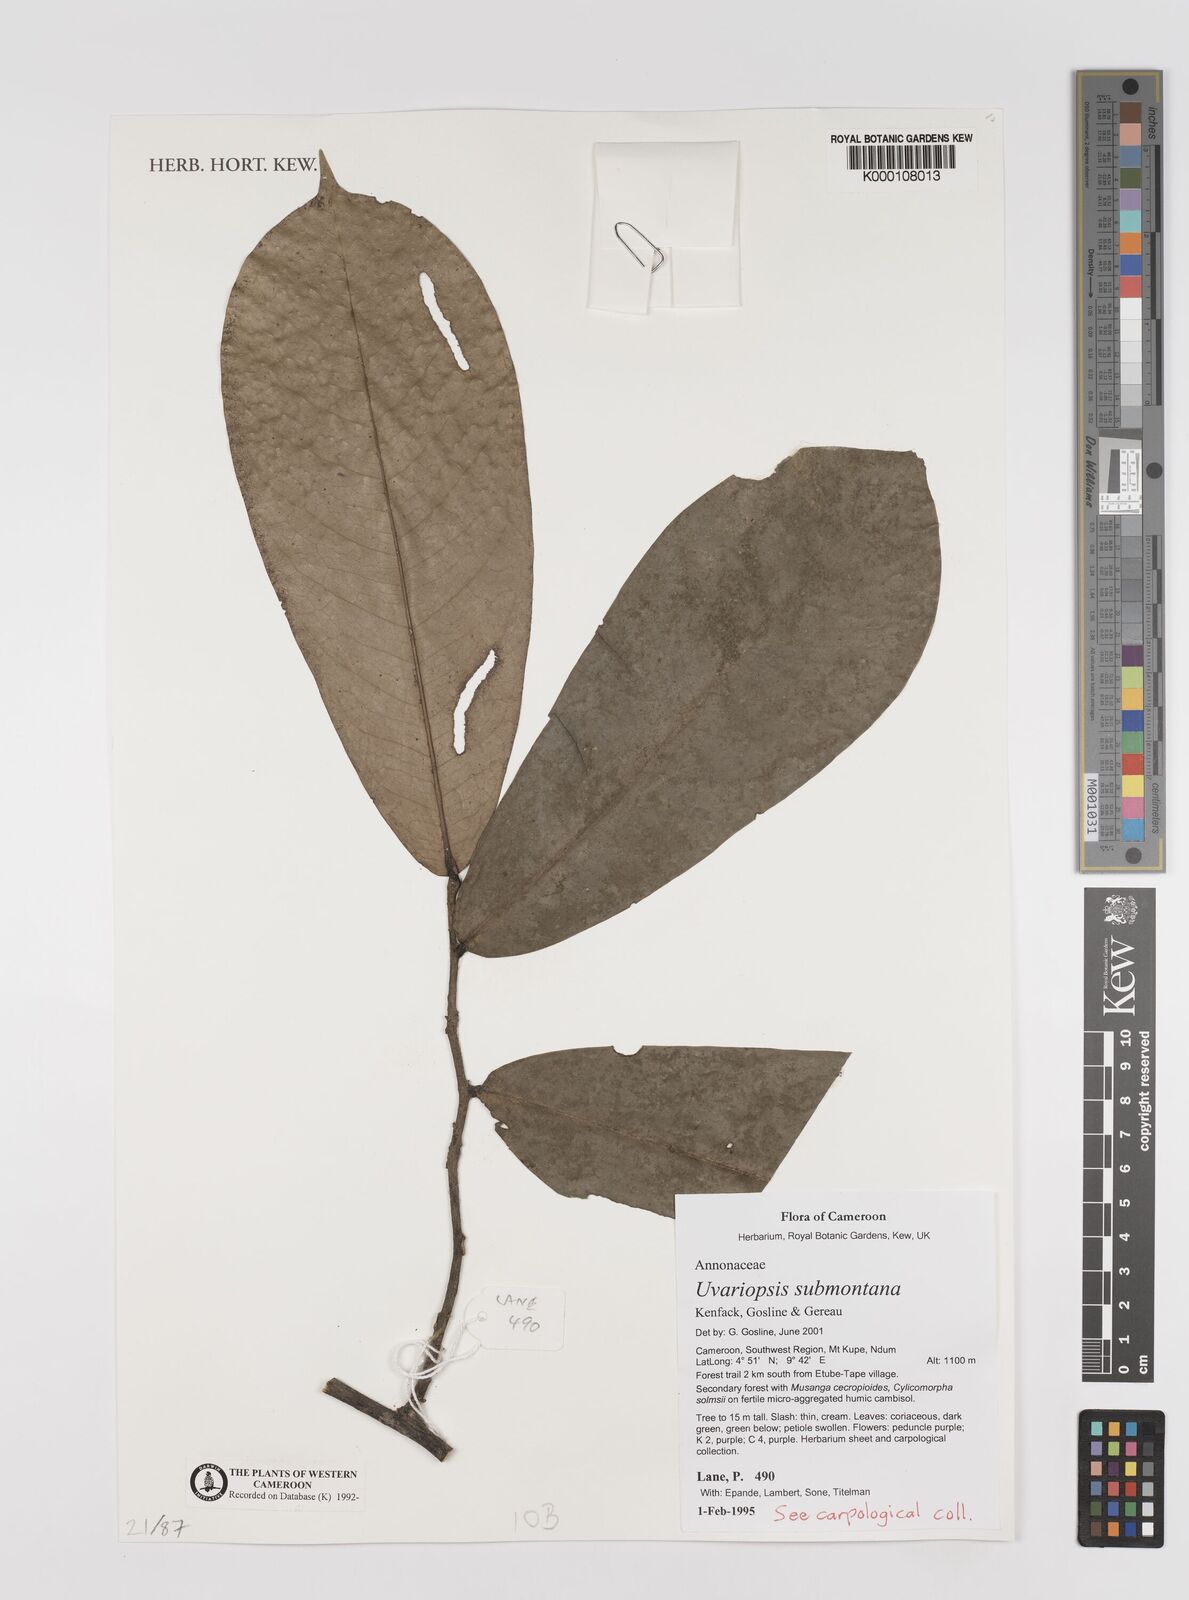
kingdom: Plantae
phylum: Tracheophyta
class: Magnoliopsida
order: Magnoliales
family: Annonaceae
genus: Uvariopsis
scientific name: Uvariopsis submontana
